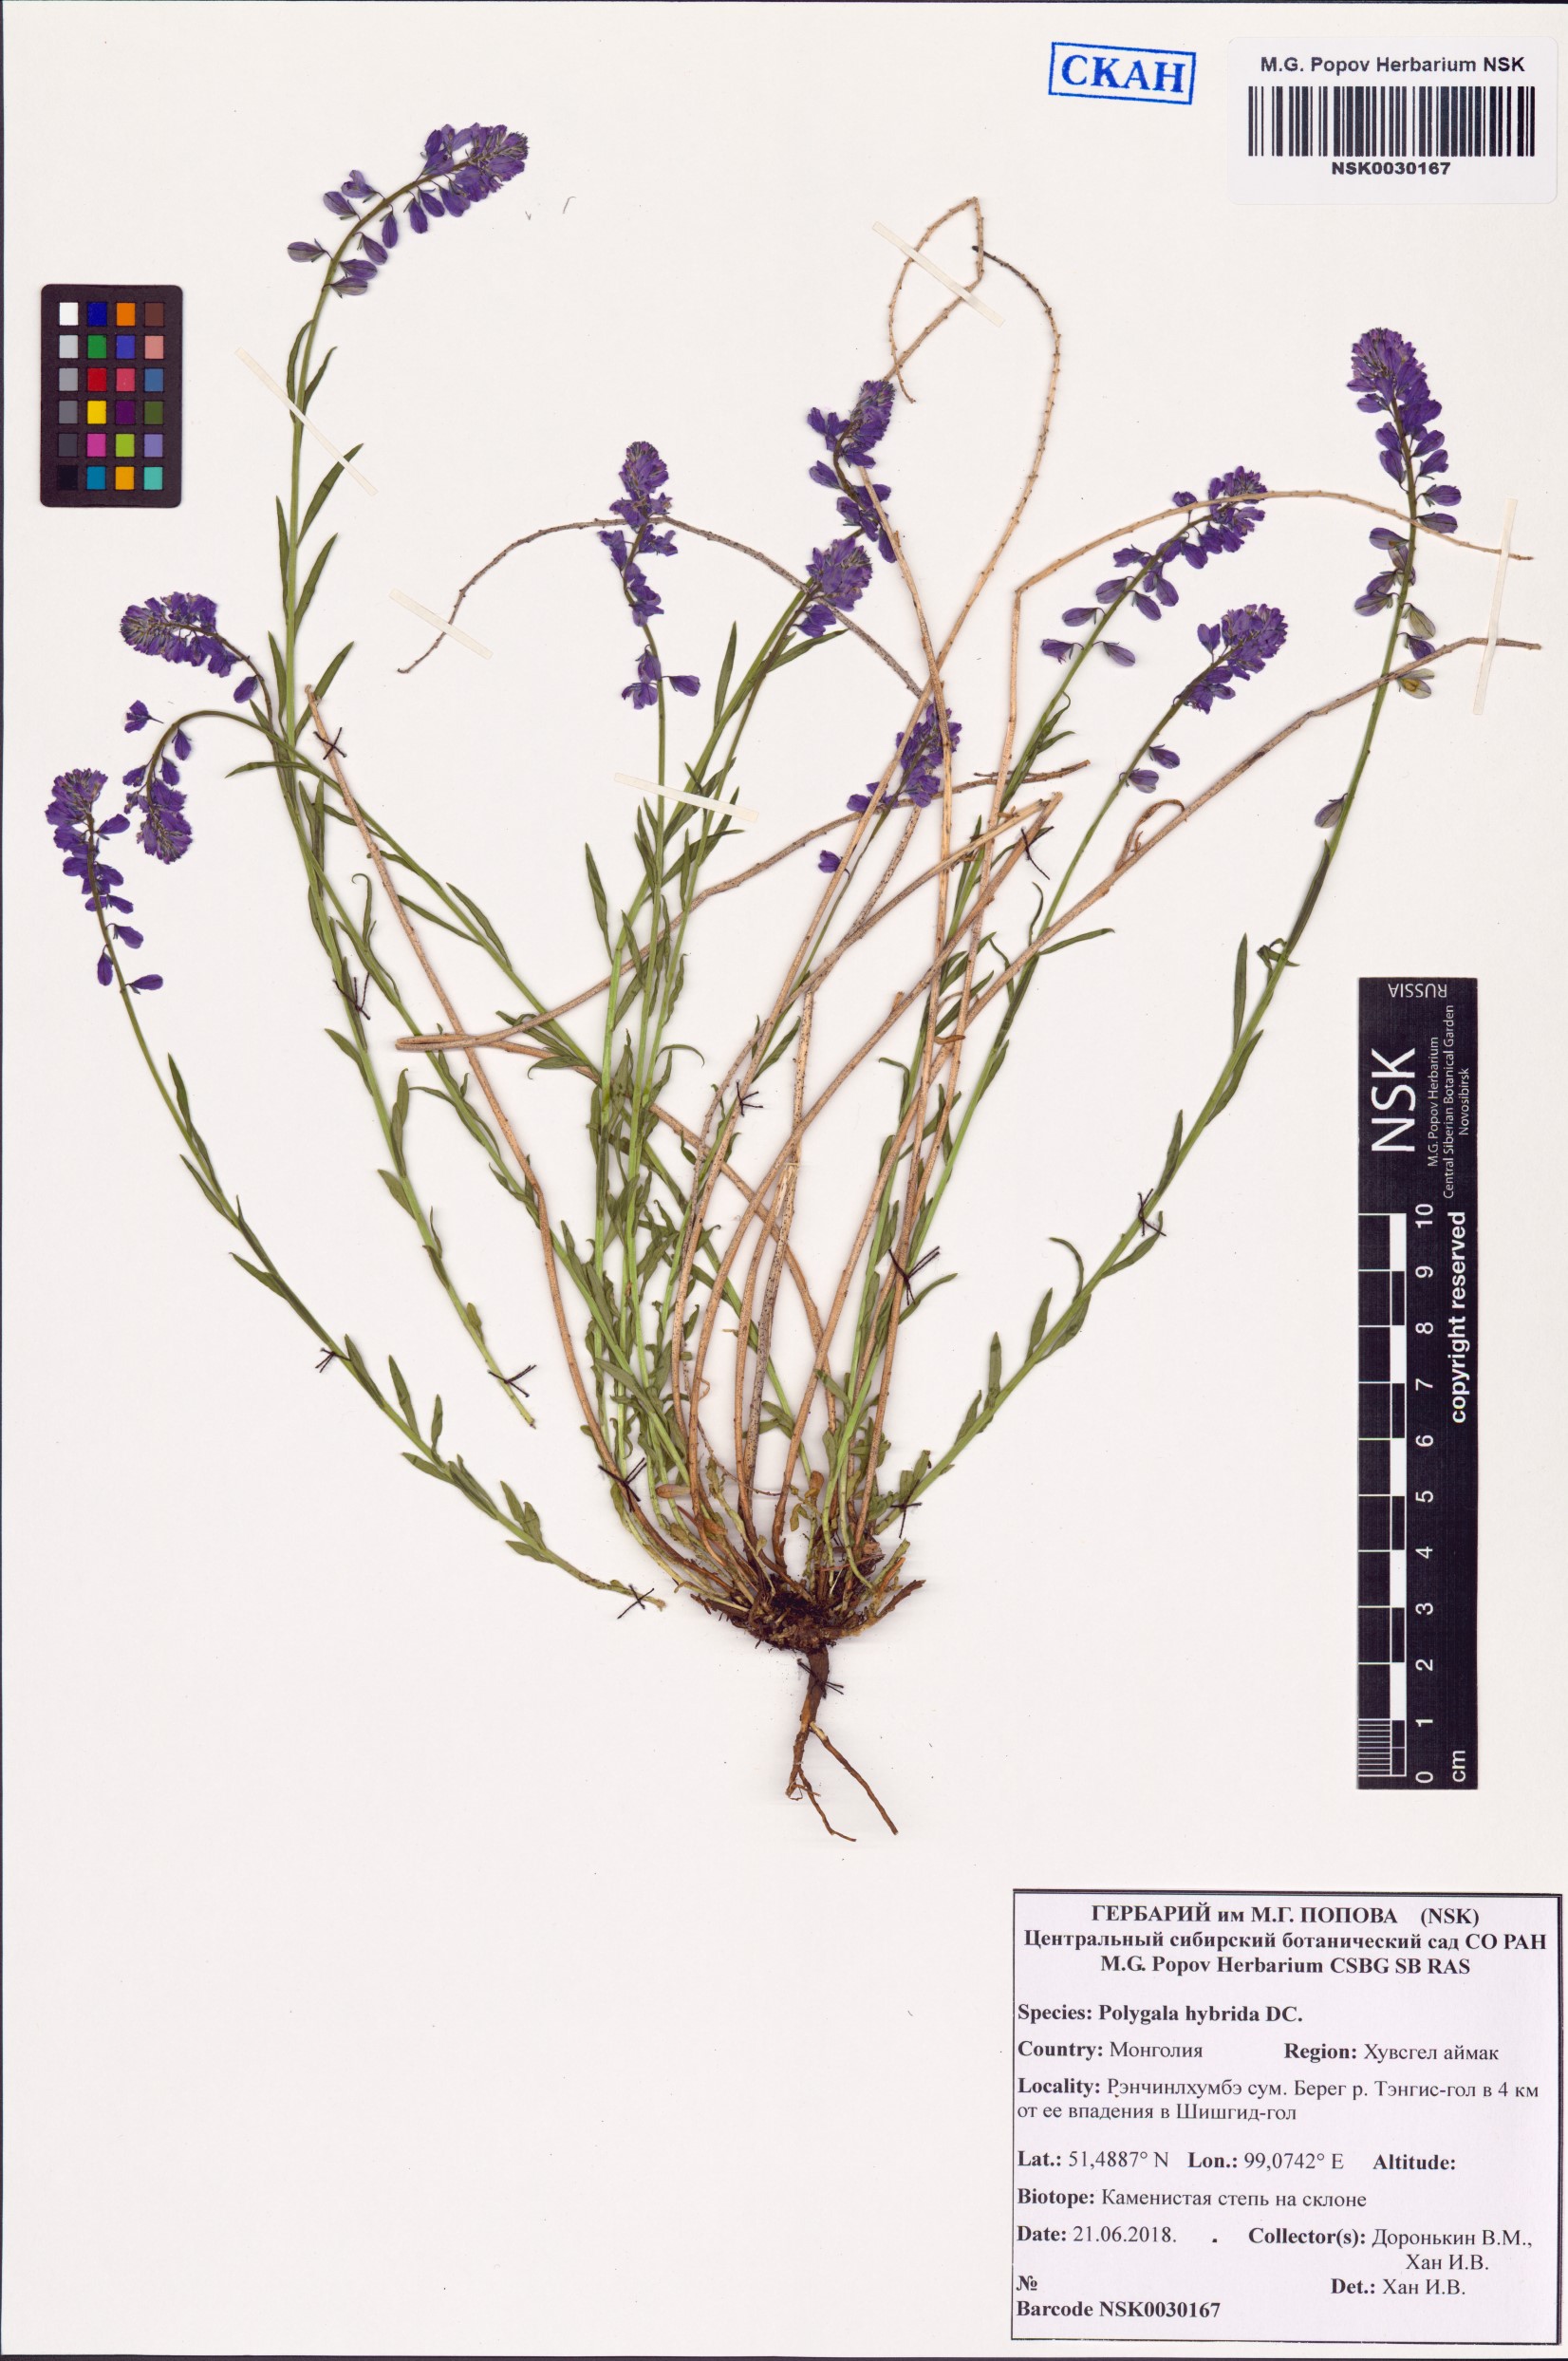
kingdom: Plantae
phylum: Tracheophyta
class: Magnoliopsida
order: Fabales
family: Polygalaceae
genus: Polygala
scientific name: Polygala comosa
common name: Tufted milkwort
